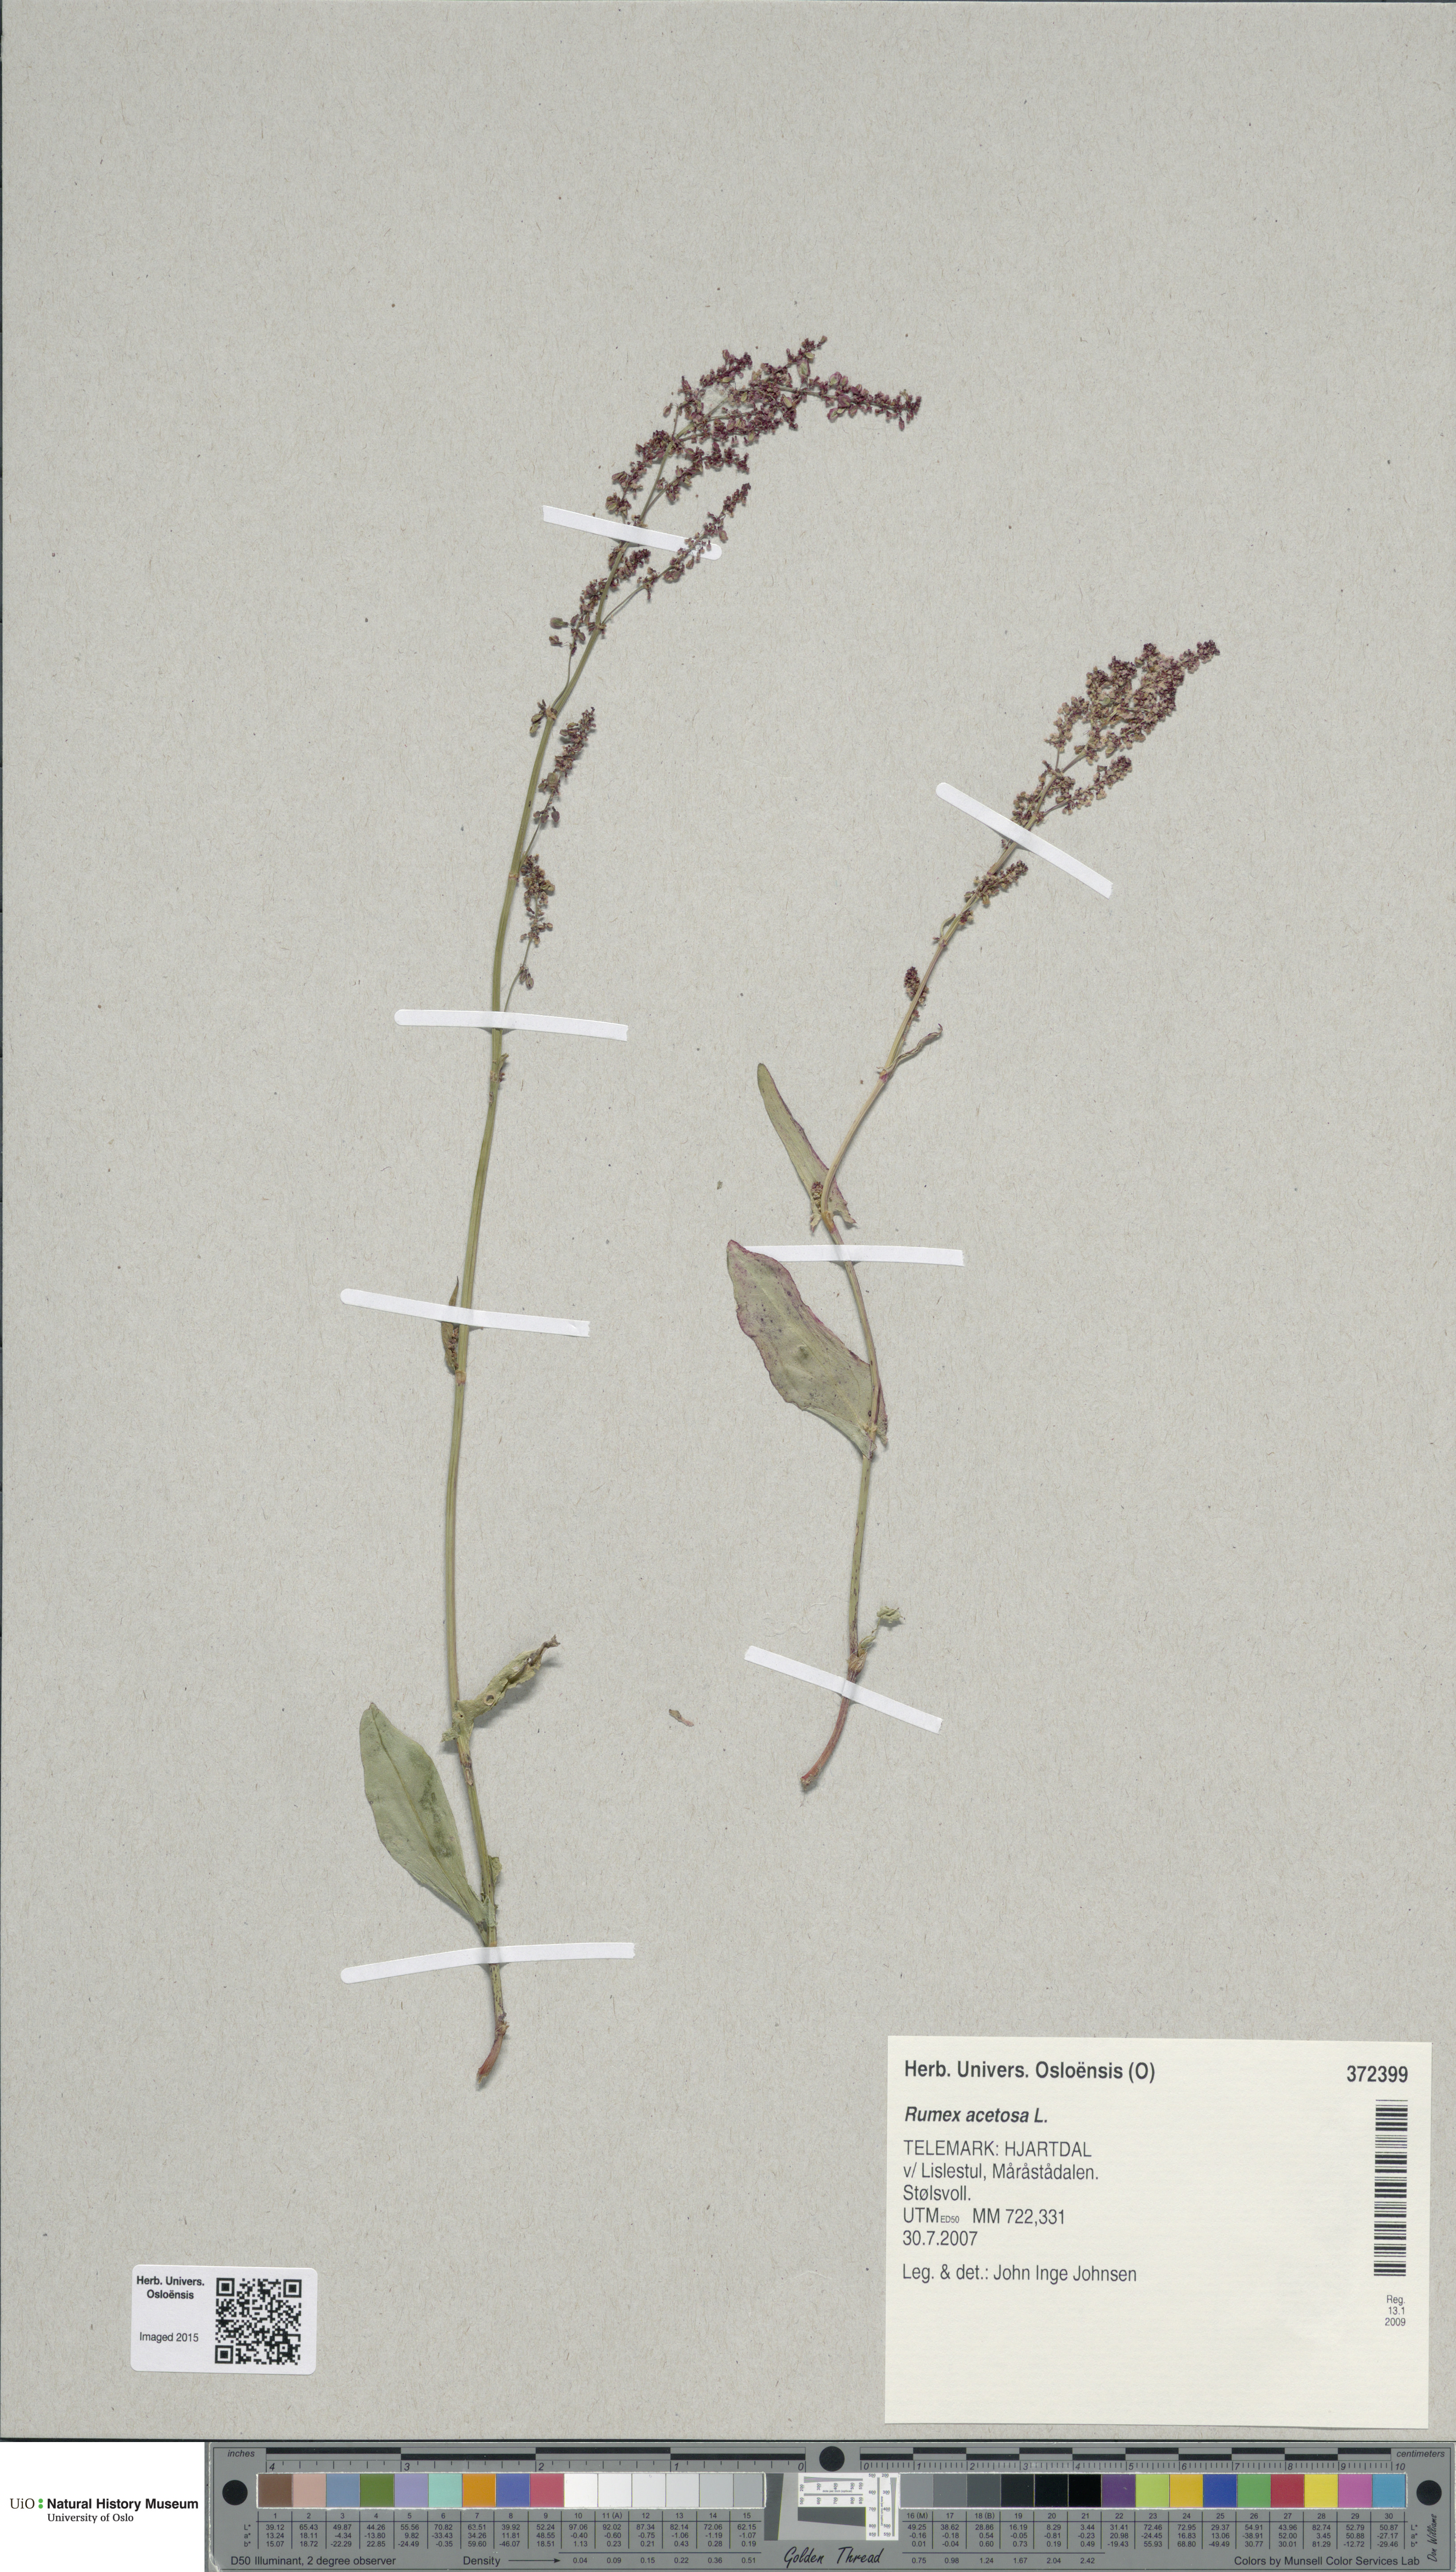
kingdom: Plantae
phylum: Tracheophyta
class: Magnoliopsida
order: Caryophyllales
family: Polygonaceae
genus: Rumex
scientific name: Rumex acetosa
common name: Garden sorrel
